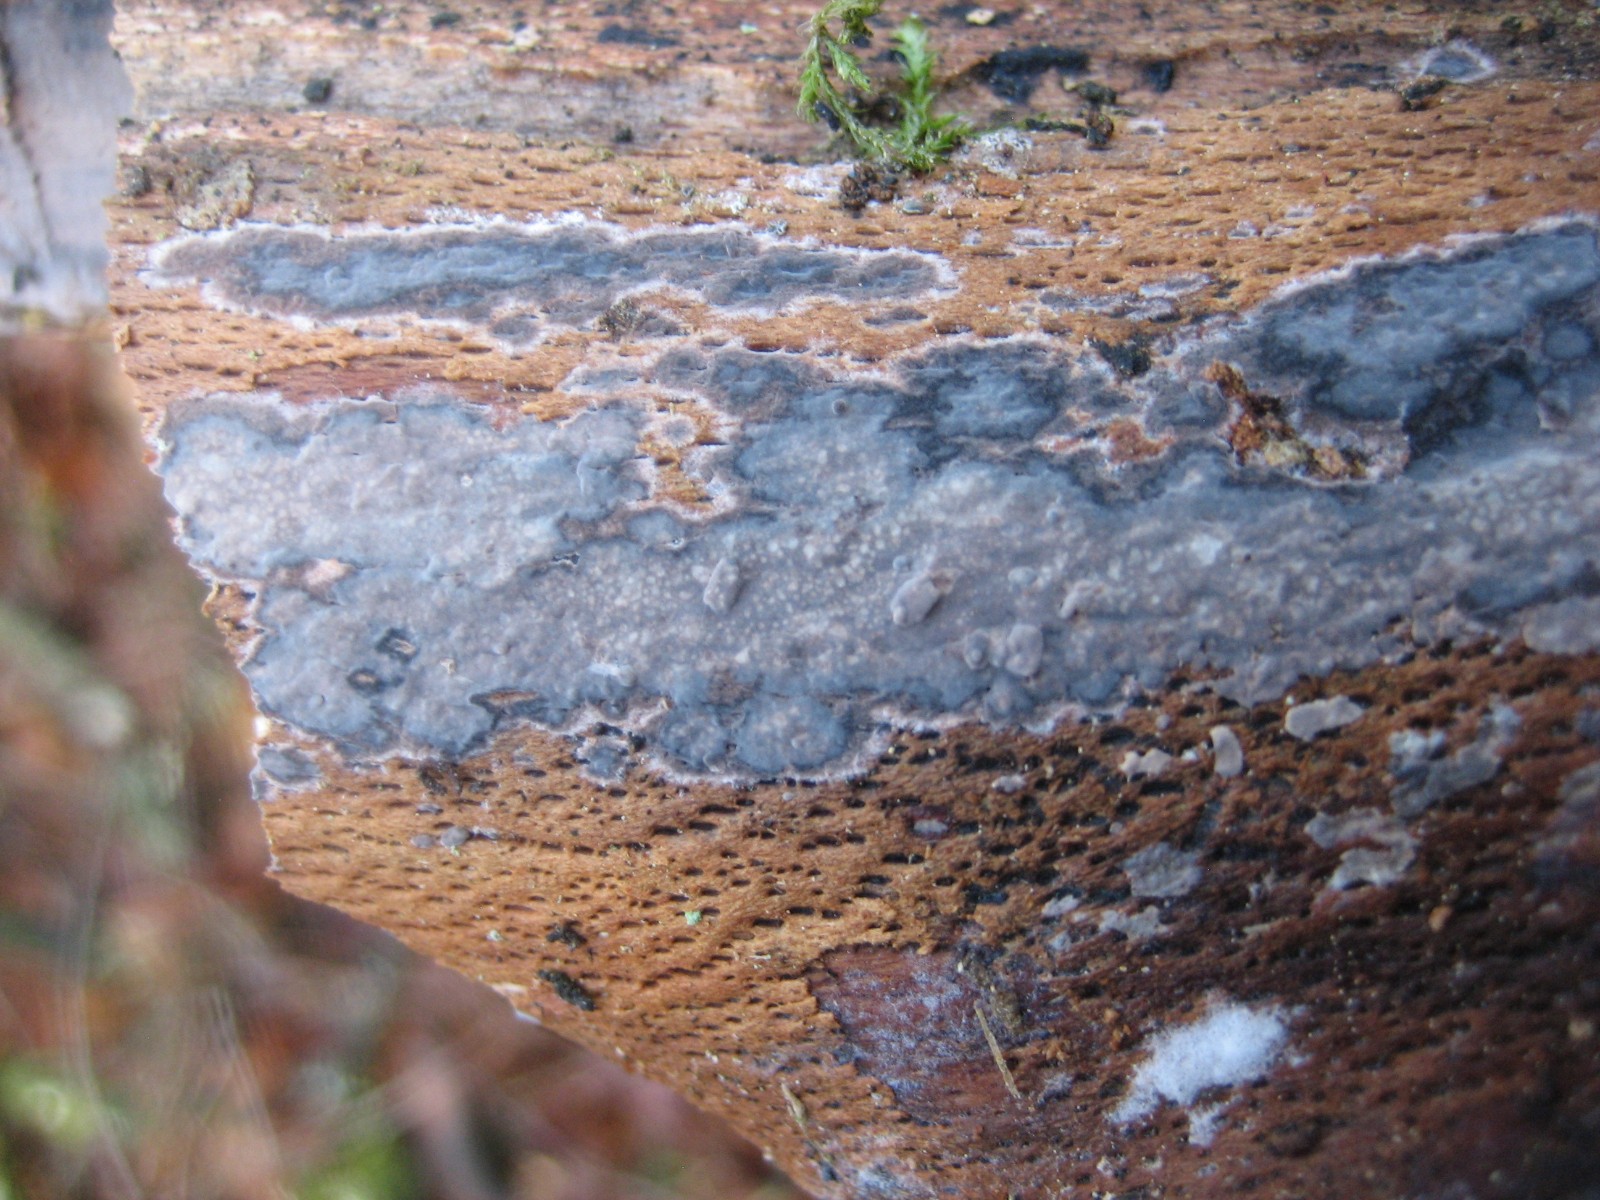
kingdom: Fungi
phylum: Basidiomycota
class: Agaricomycetes
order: Russulales
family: Peniophoraceae
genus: Peniophora
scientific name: Peniophora
